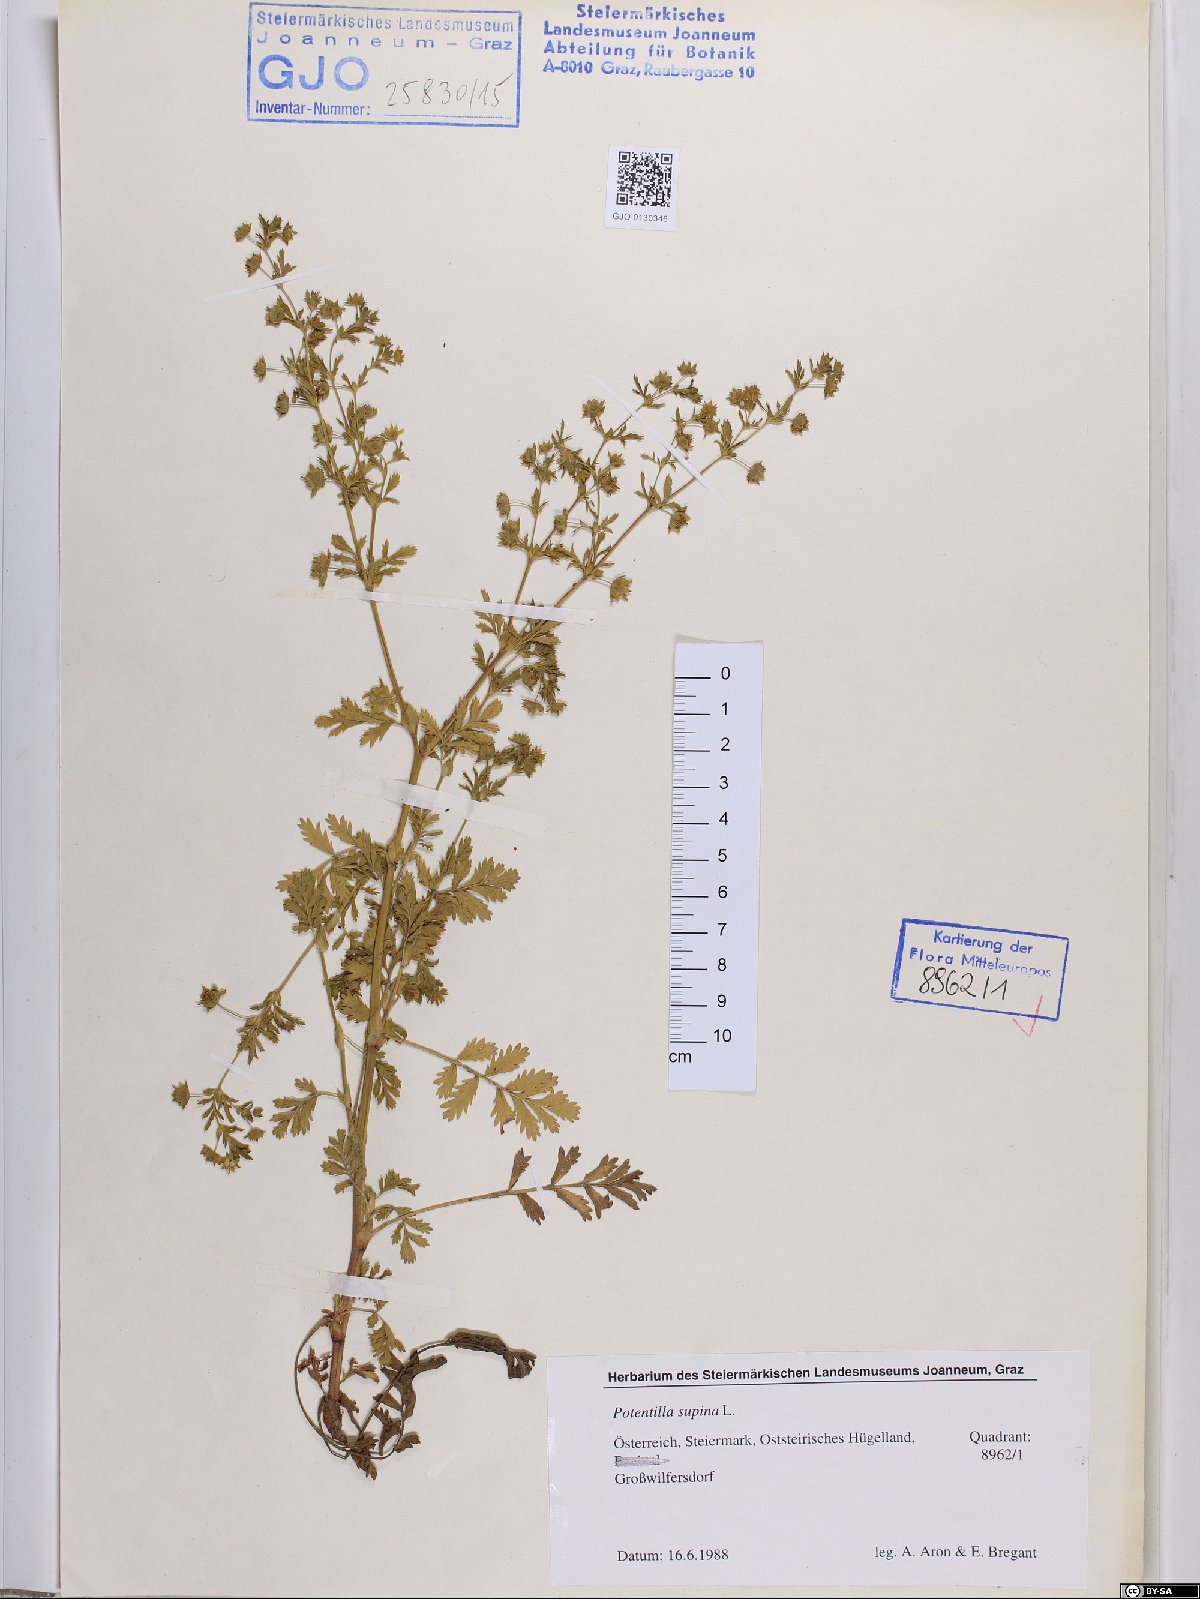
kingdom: Plantae
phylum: Tracheophyta
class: Magnoliopsida
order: Rosales
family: Rosaceae
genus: Potentilla
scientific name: Potentilla supina
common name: Prostrate cinquefoil
